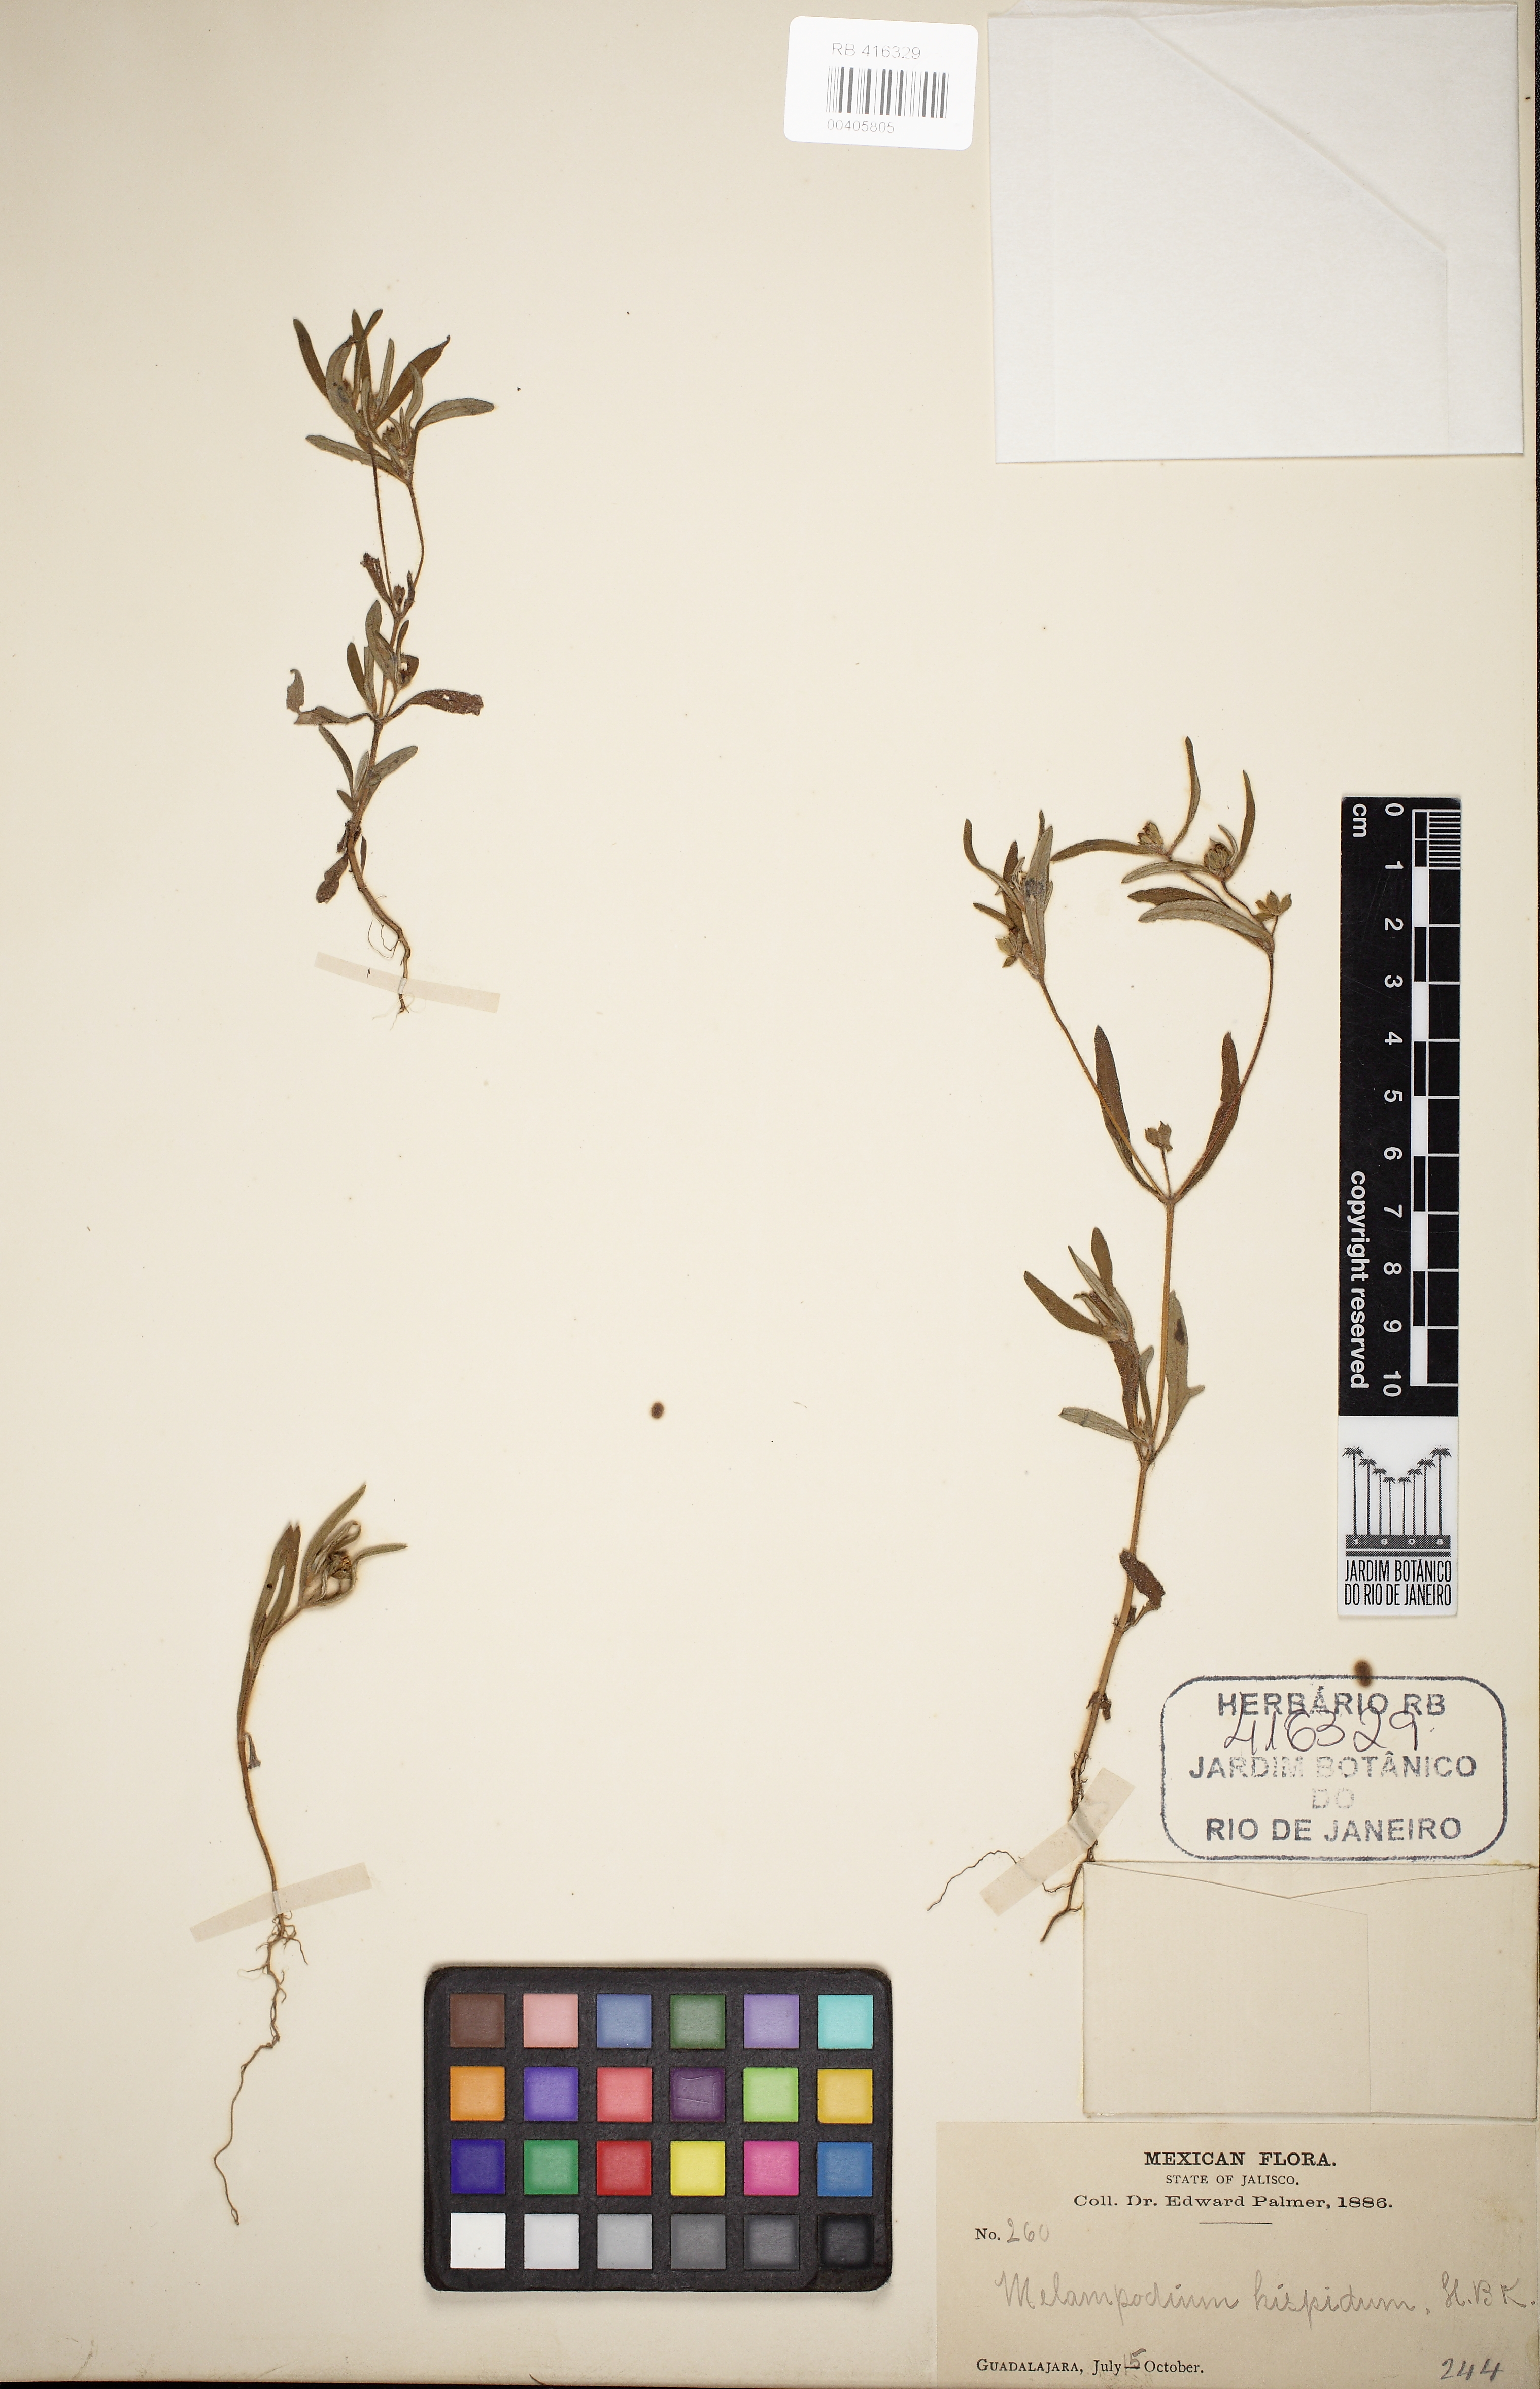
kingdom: Plantae
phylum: Tracheophyta
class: Magnoliopsida
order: Asterales
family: Asteraceae
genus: Melampodium
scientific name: Melampodium sericeum
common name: Rough blackfoot
